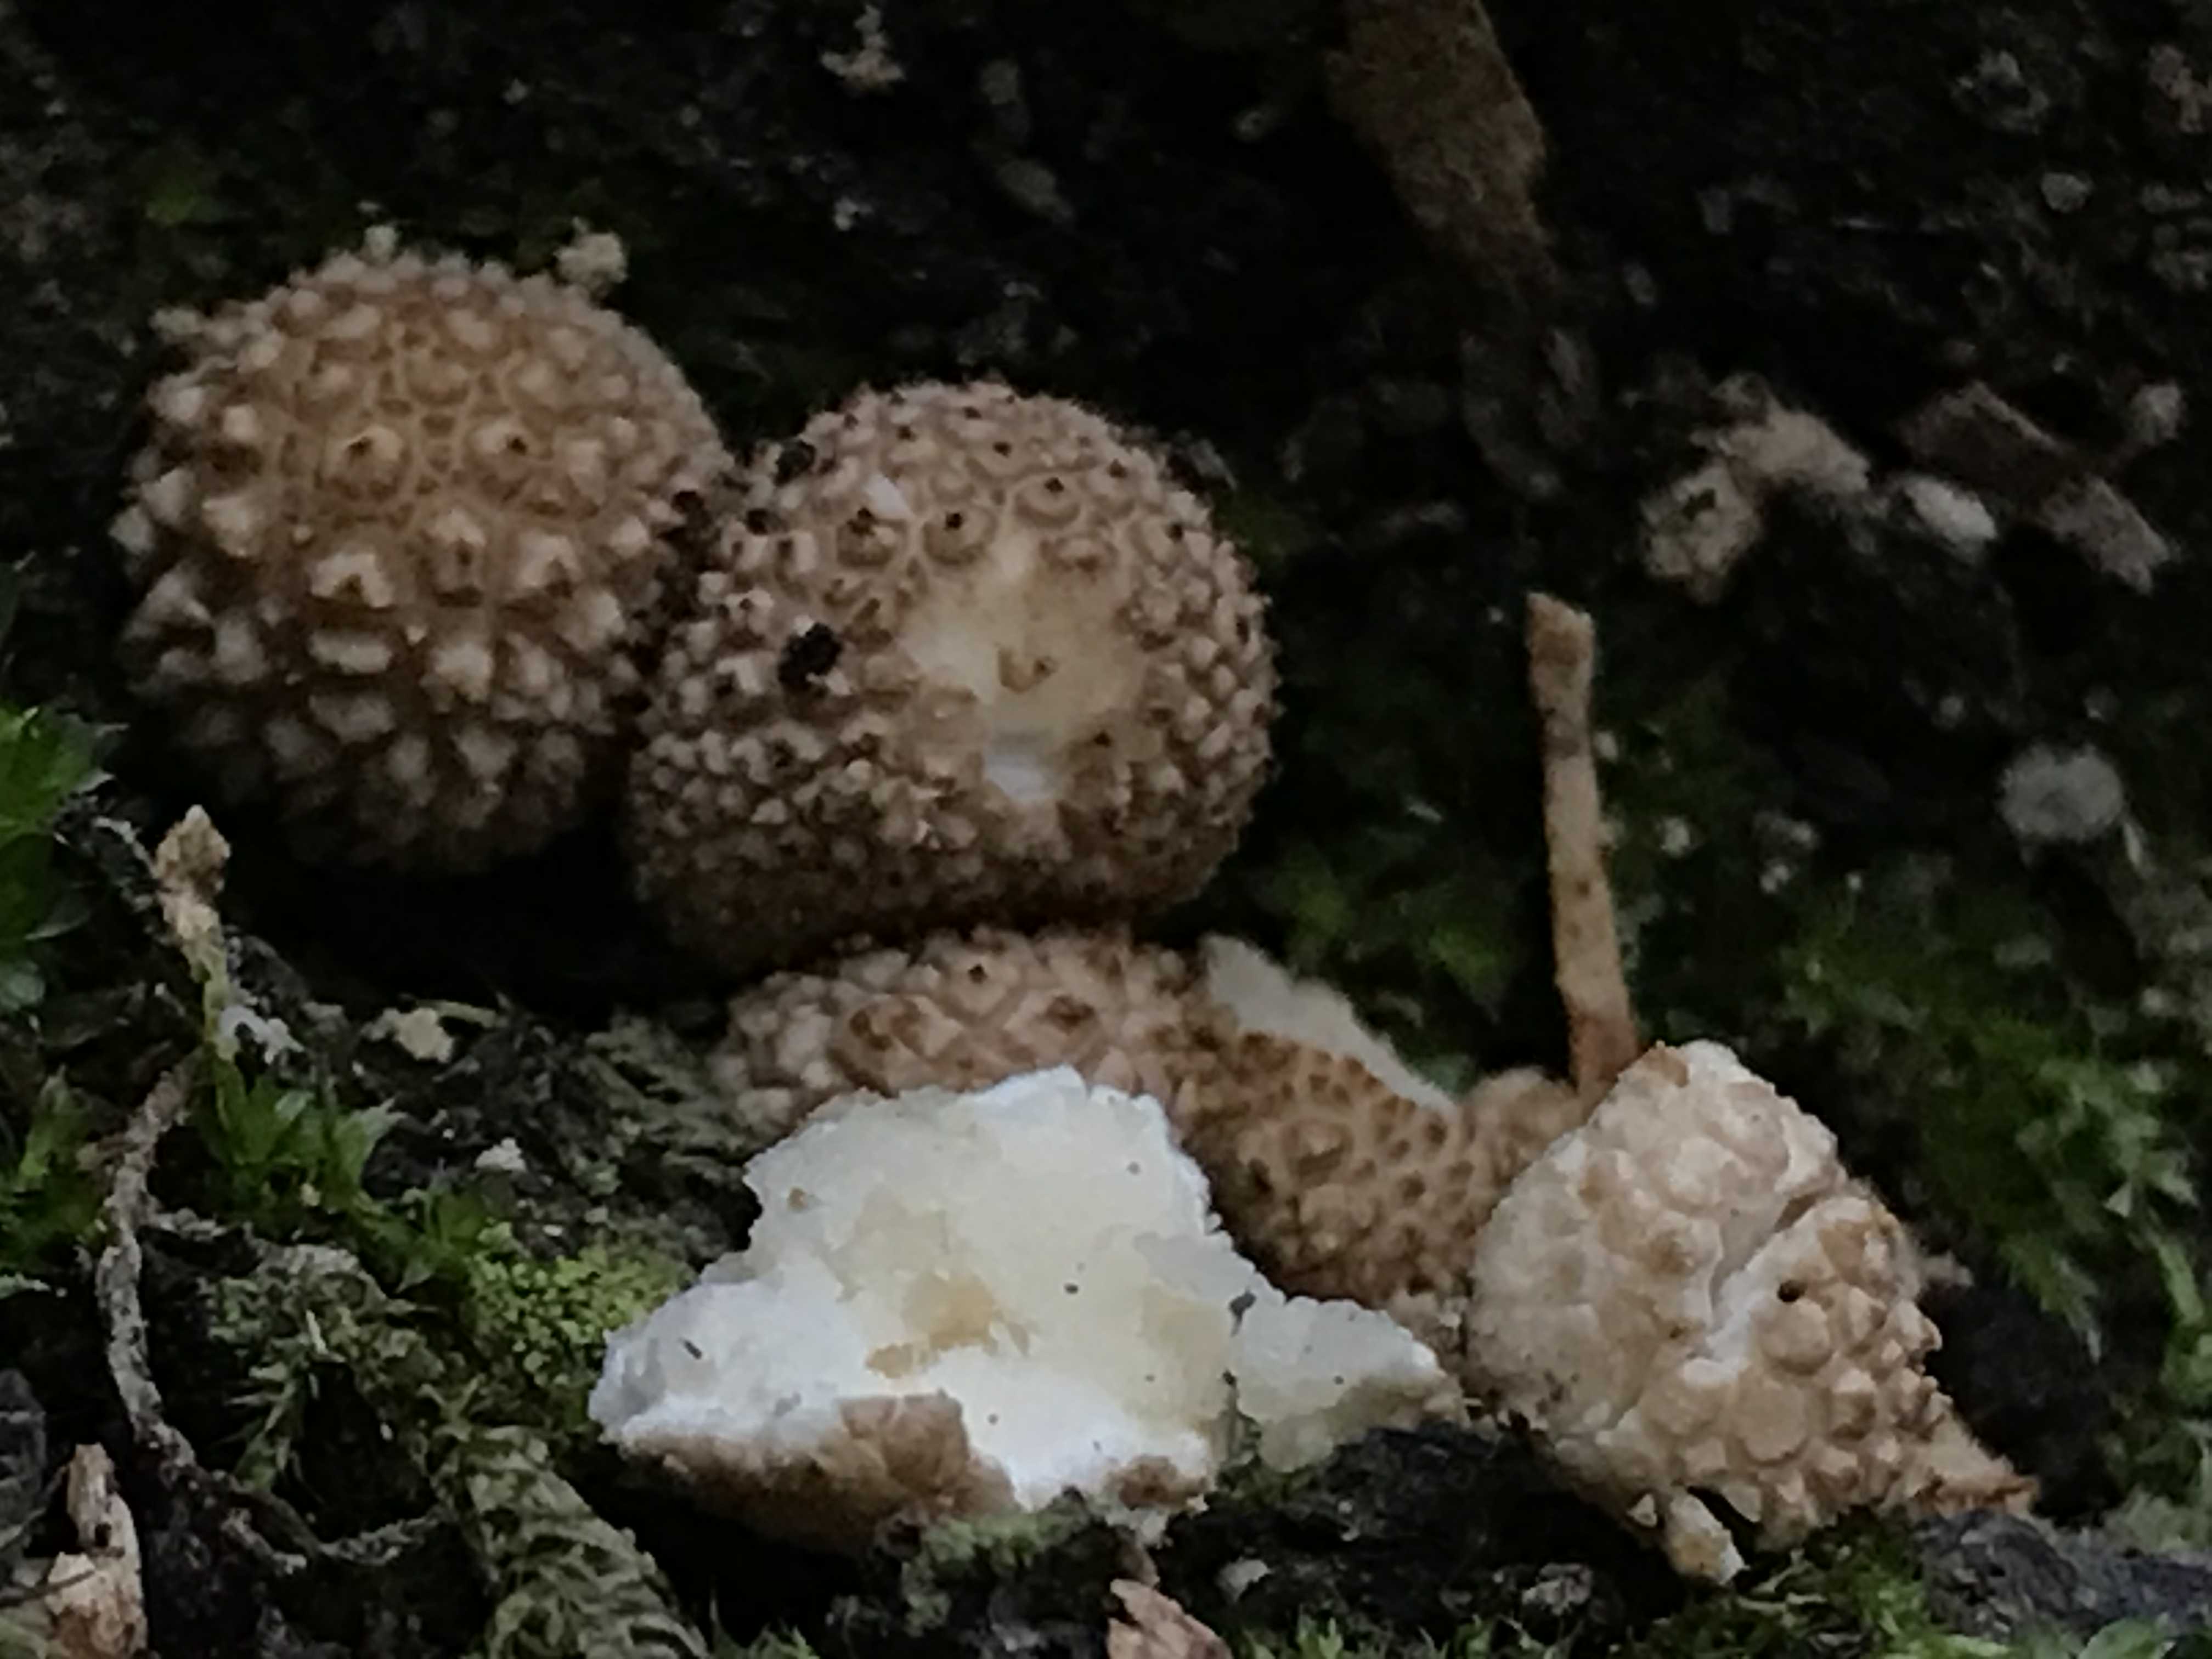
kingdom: Fungi
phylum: Basidiomycota
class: Agaricomycetes
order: Agaricales
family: Lycoperdaceae
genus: Lycoperdon
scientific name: Lycoperdon perlatum
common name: krystal-støvbold
